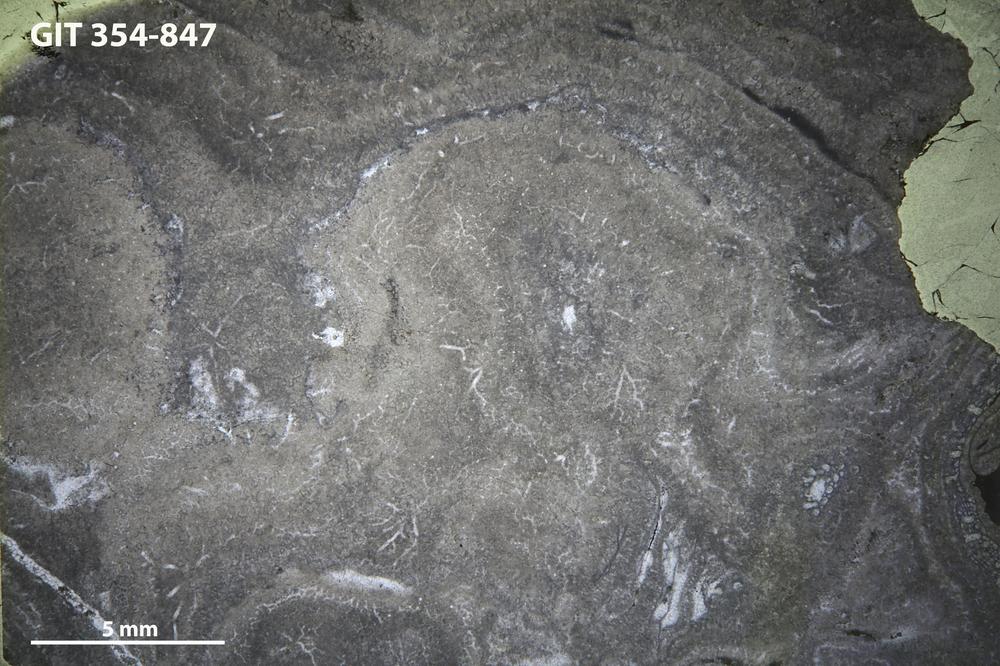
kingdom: Animalia
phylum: Porifera
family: Densastromatidae
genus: Densastroma
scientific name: Densastroma
